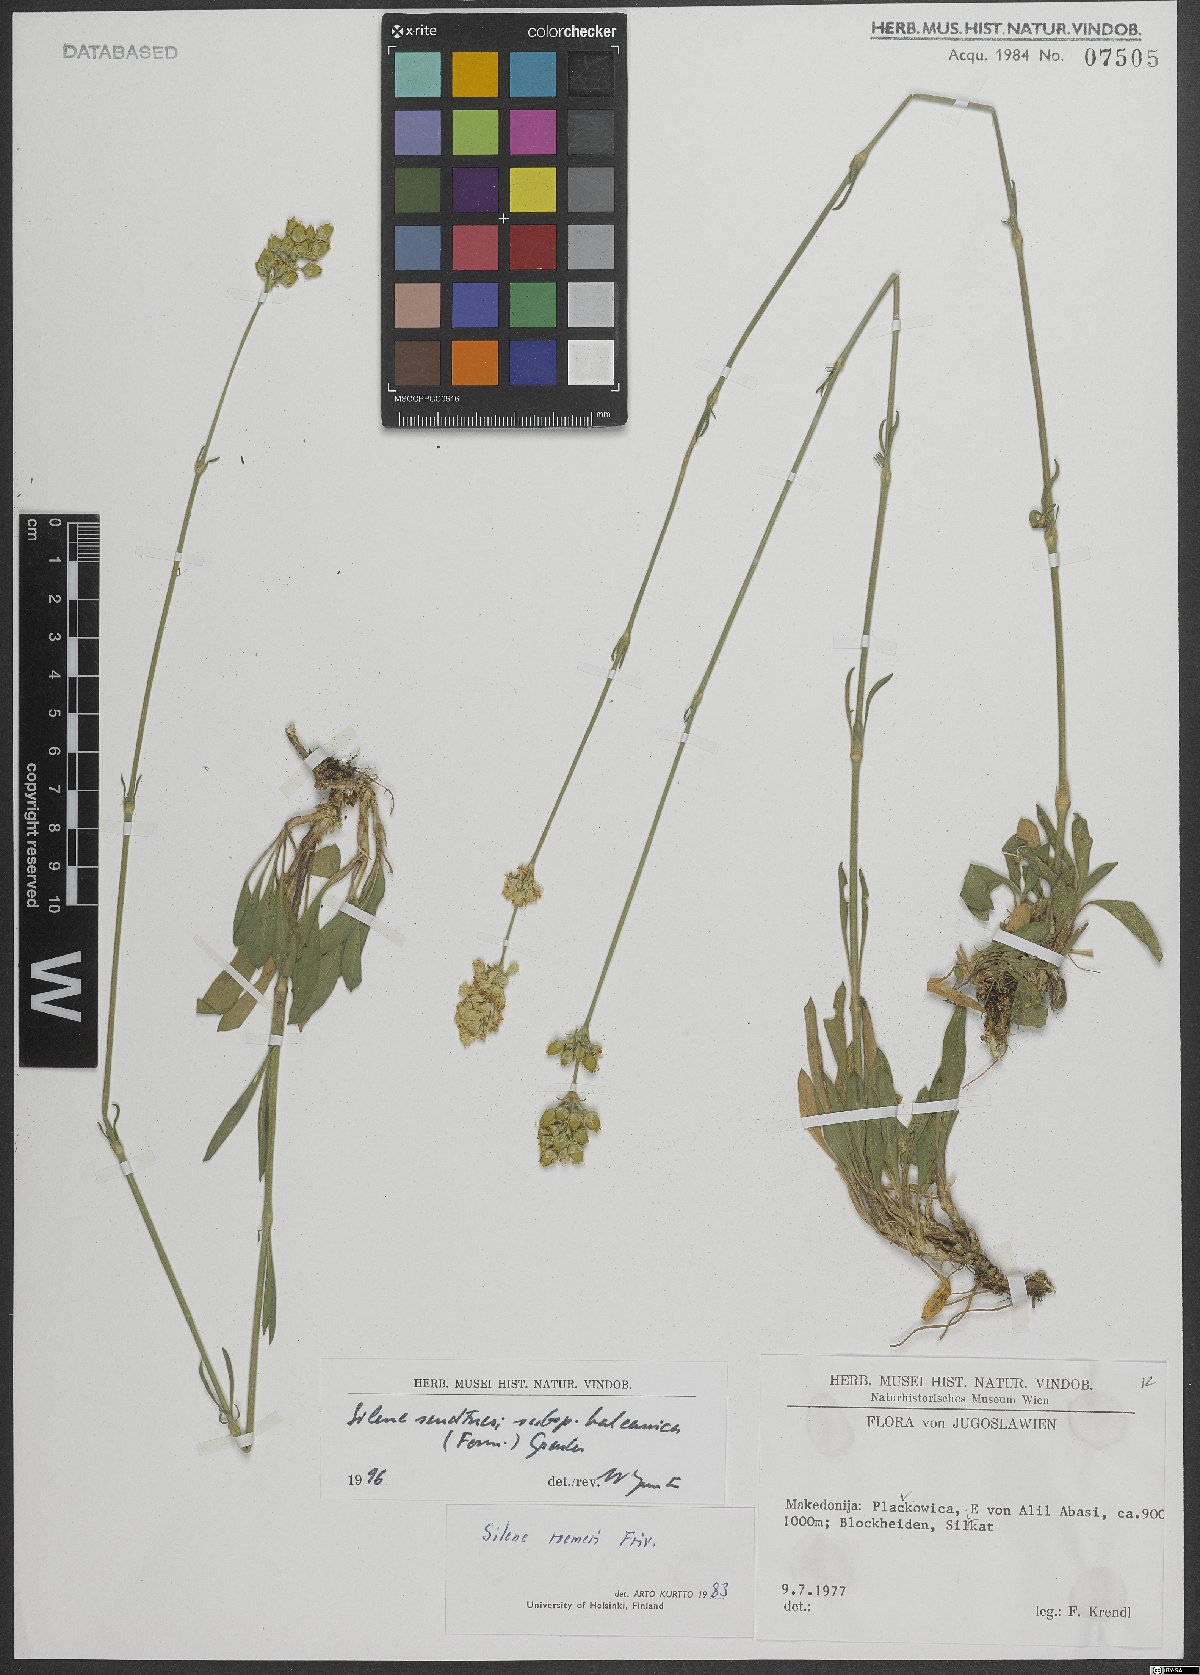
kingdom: Plantae
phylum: Tracheophyta
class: Magnoliopsida
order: Caryophyllales
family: Caryophyllaceae
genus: Silene
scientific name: Silene sendtneri
